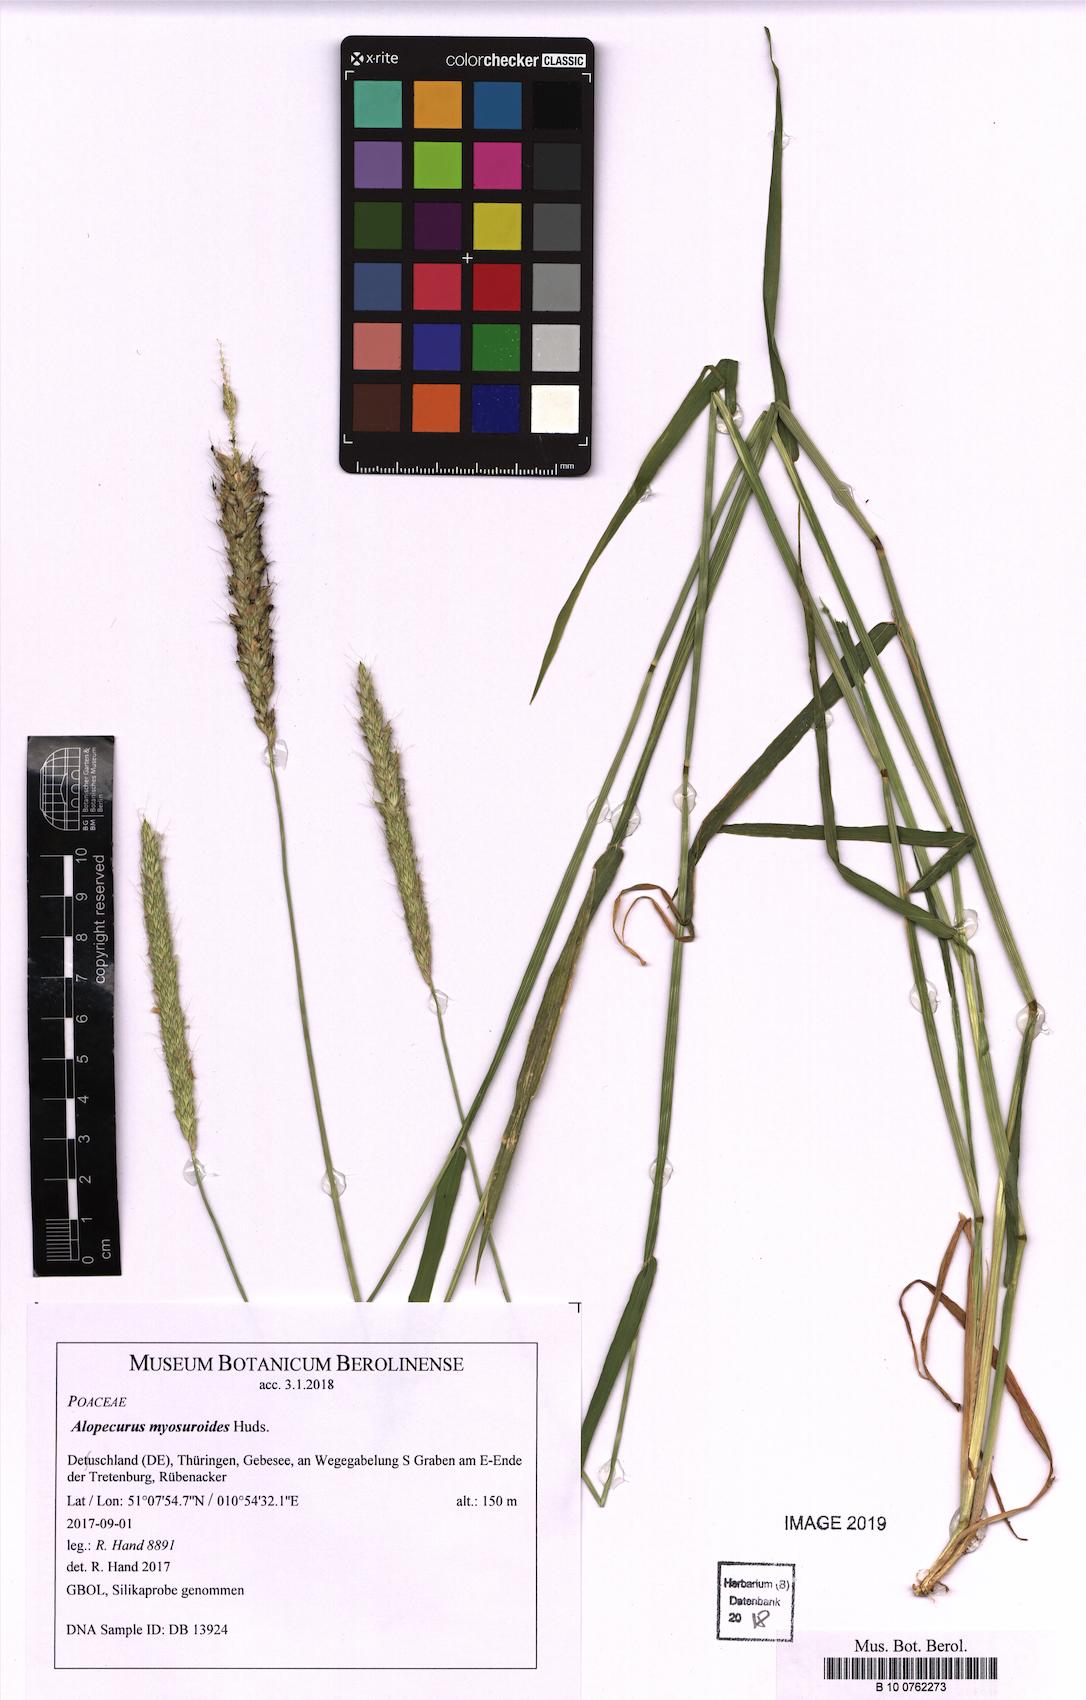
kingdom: Plantae
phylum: Tracheophyta
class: Liliopsida
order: Poales
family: Poaceae
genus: Alopecurus
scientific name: Alopecurus myosuroides
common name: Black-grass
